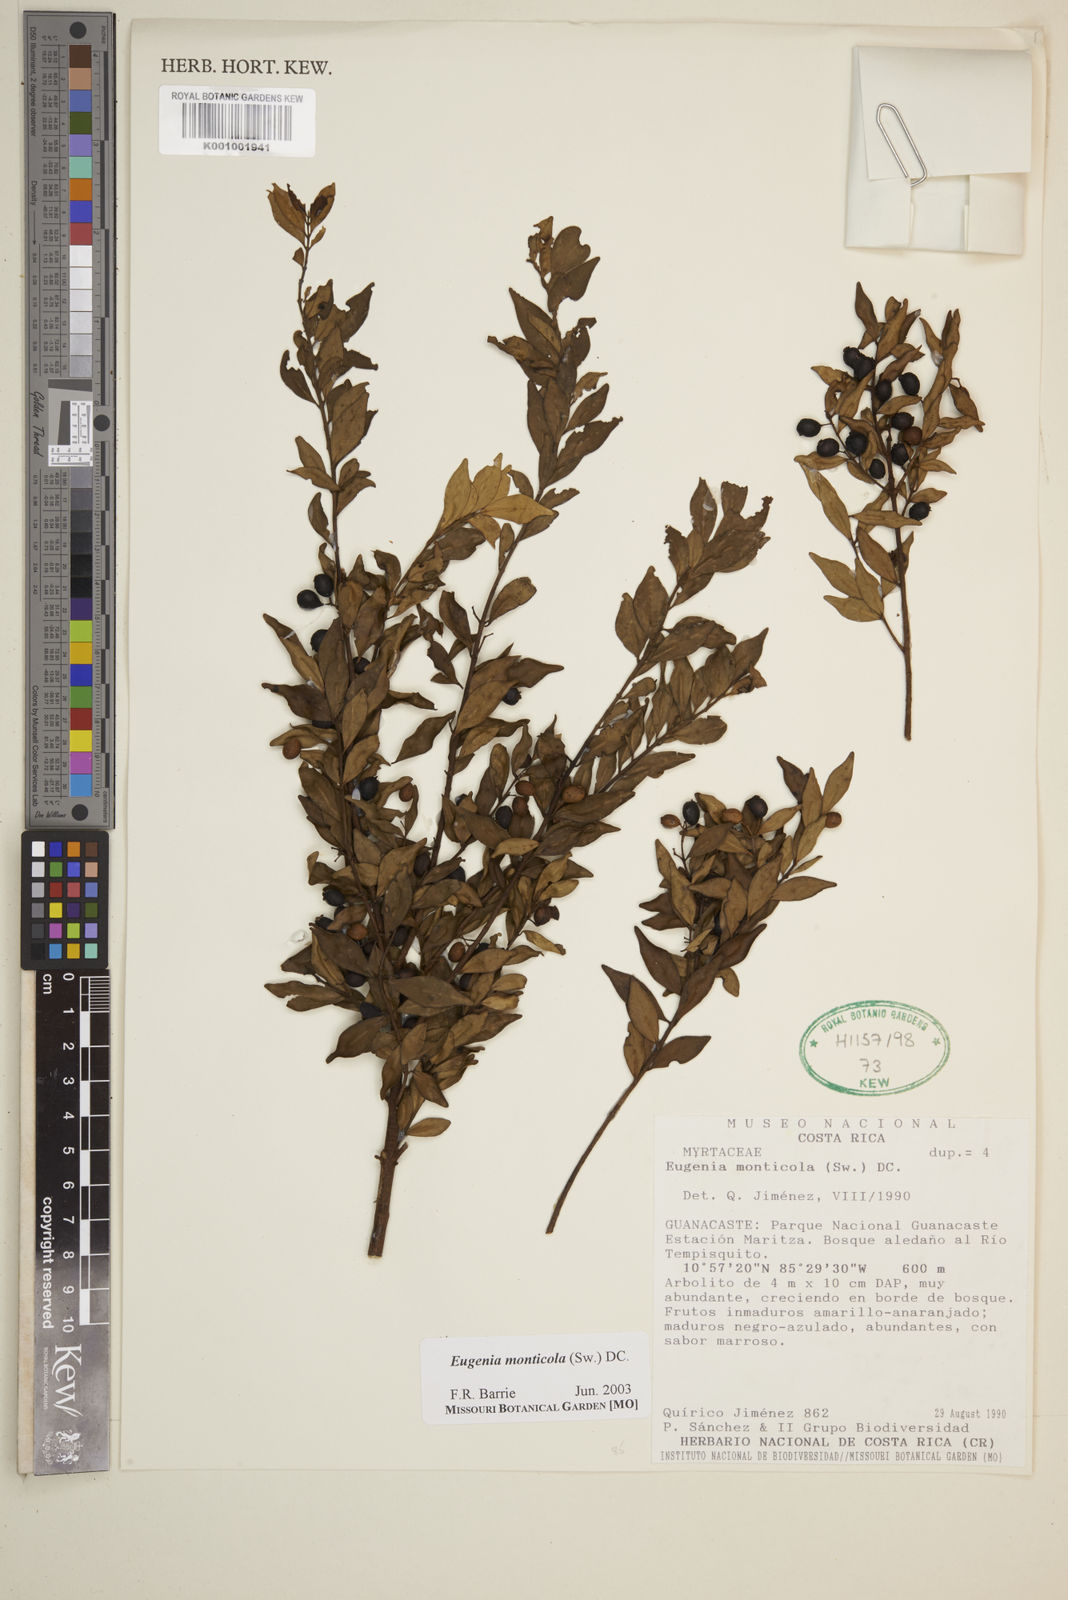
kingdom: Plantae
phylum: Tracheophyta
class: Magnoliopsida
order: Myrtales
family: Myrtaceae
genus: Eugenia
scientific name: Eugenia monticola
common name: Birds berry
